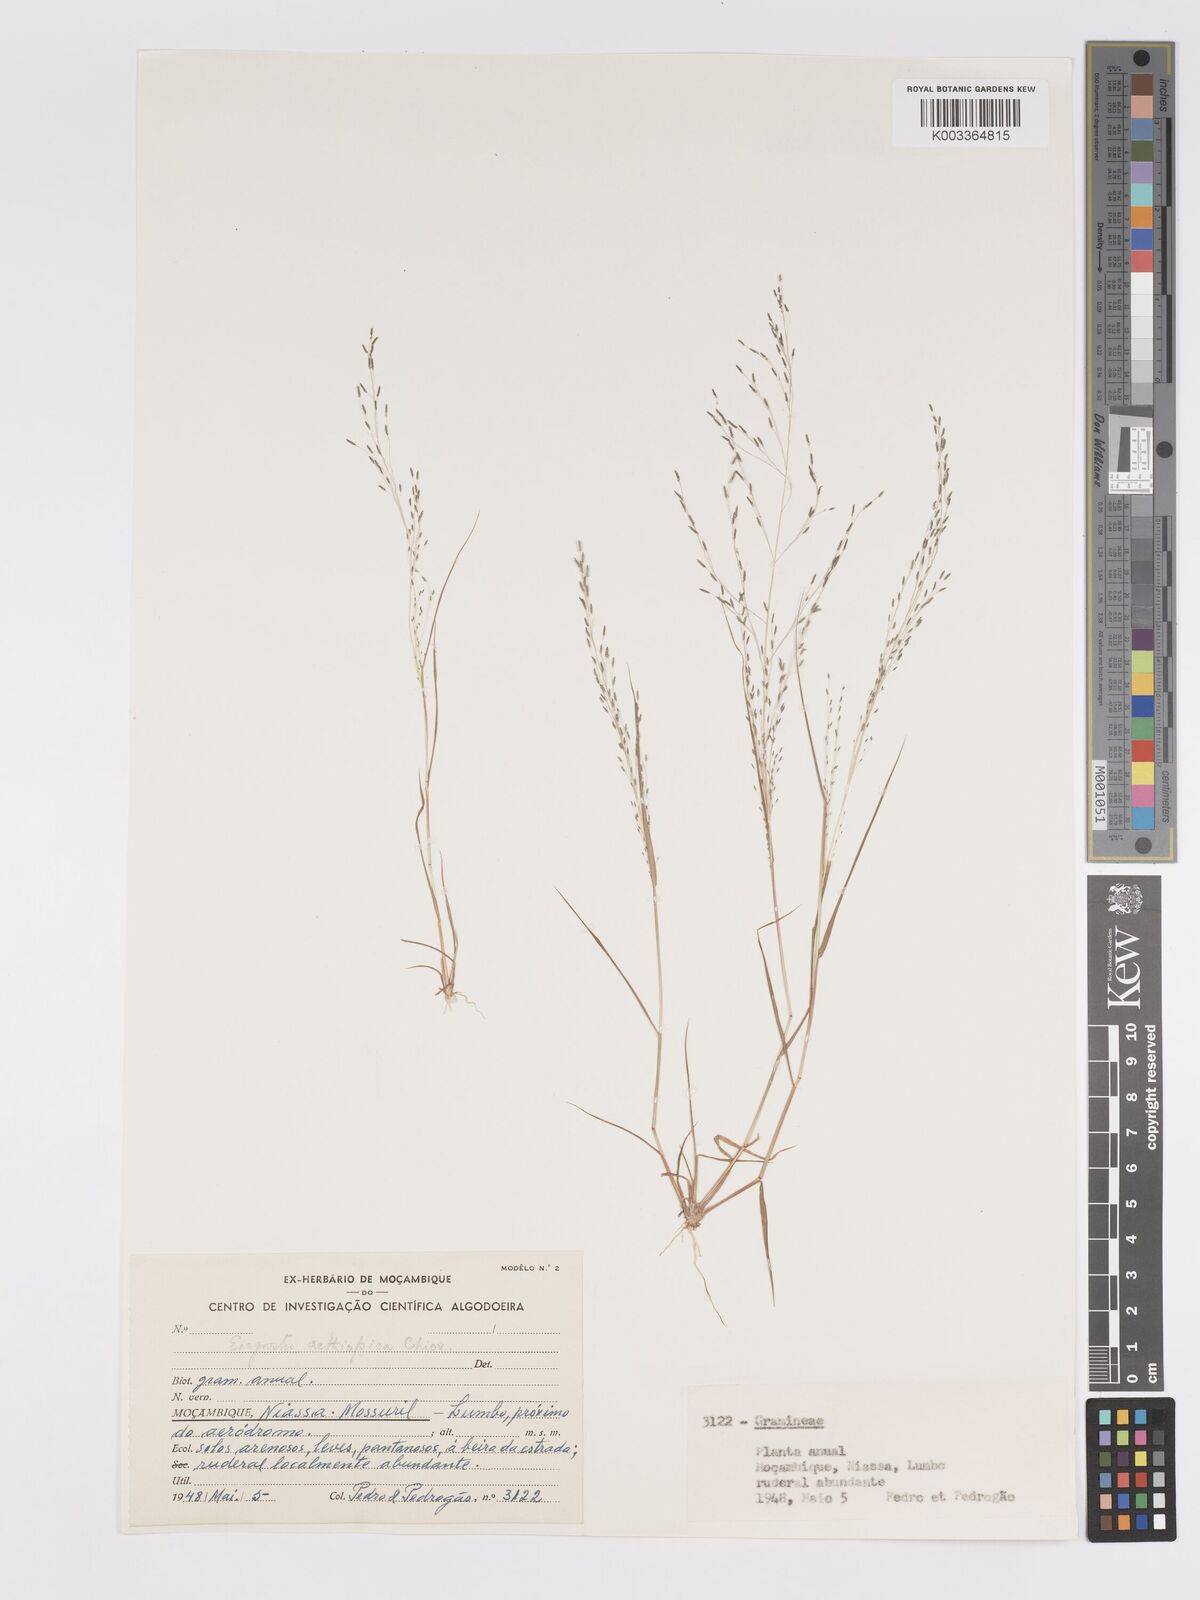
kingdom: Plantae
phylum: Tracheophyta
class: Liliopsida
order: Poales
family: Poaceae
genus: Eragrostis
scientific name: Eragrostis aethiopica
